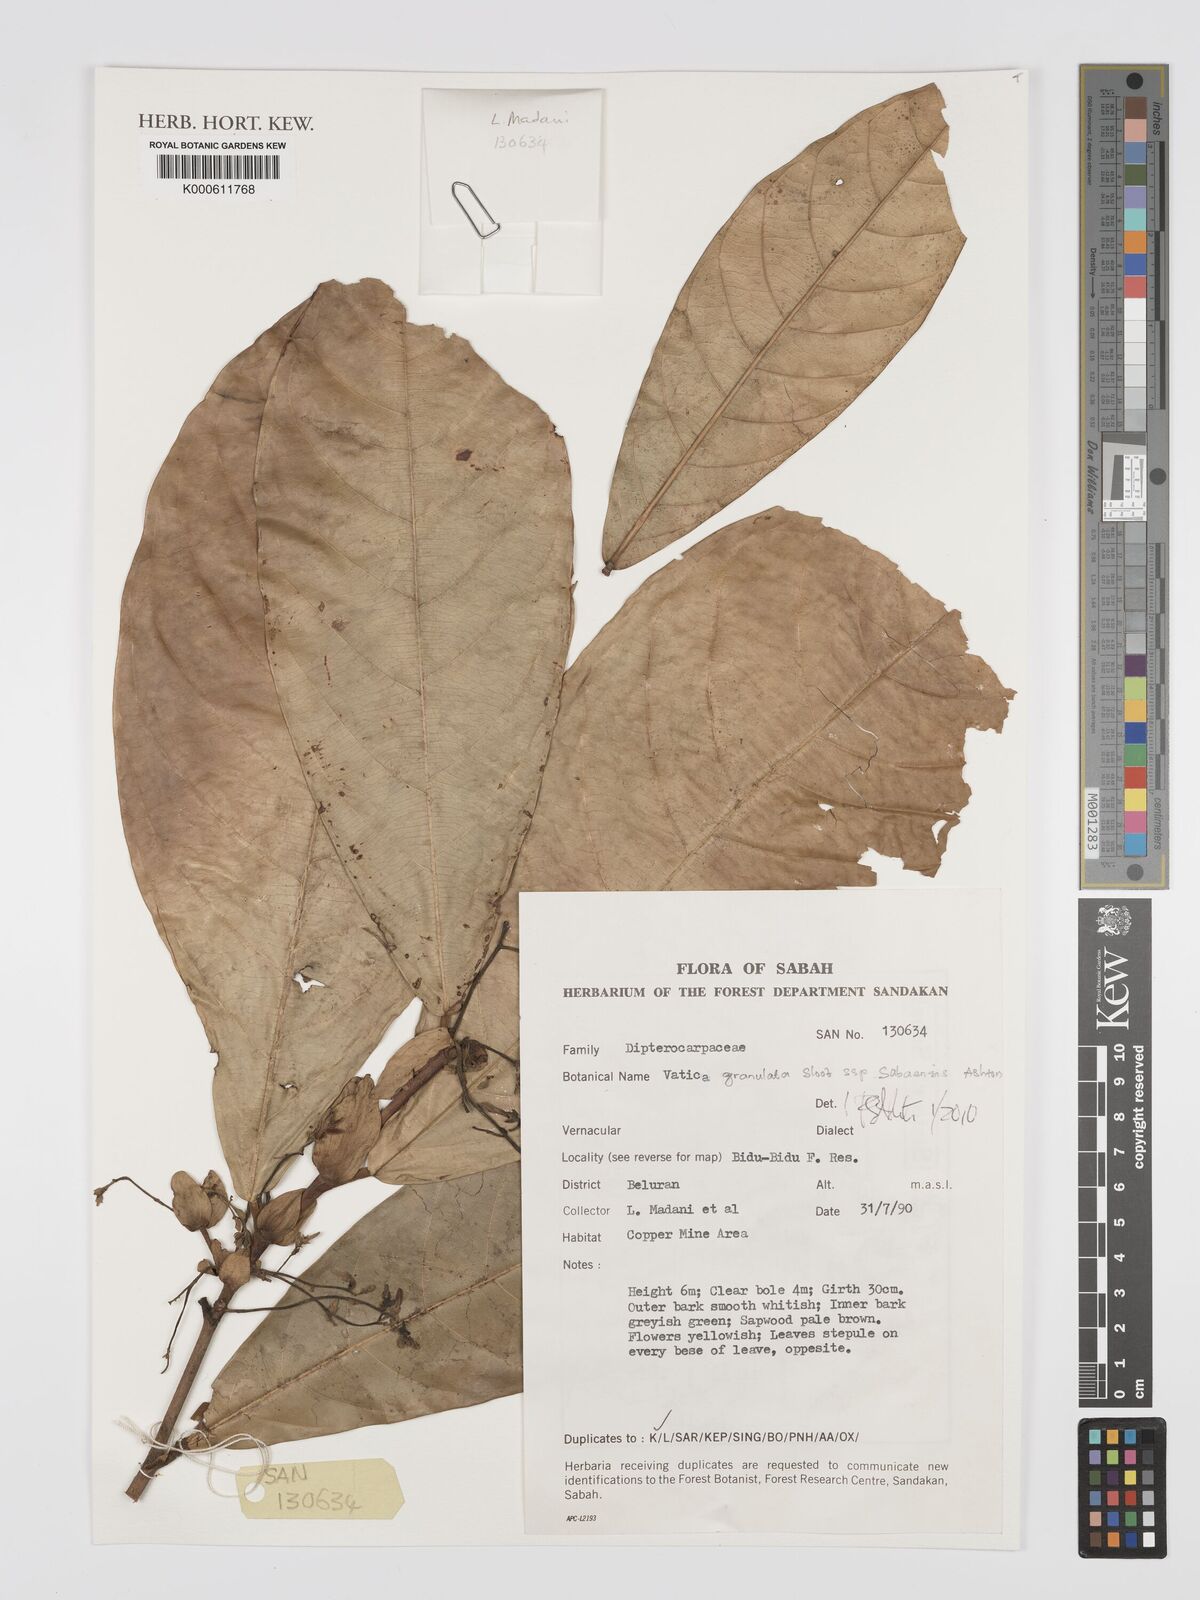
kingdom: Plantae
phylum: Tracheophyta
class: Magnoliopsida
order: Malvales
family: Dipterocarpaceae
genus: Vatica
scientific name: Vatica granulata
